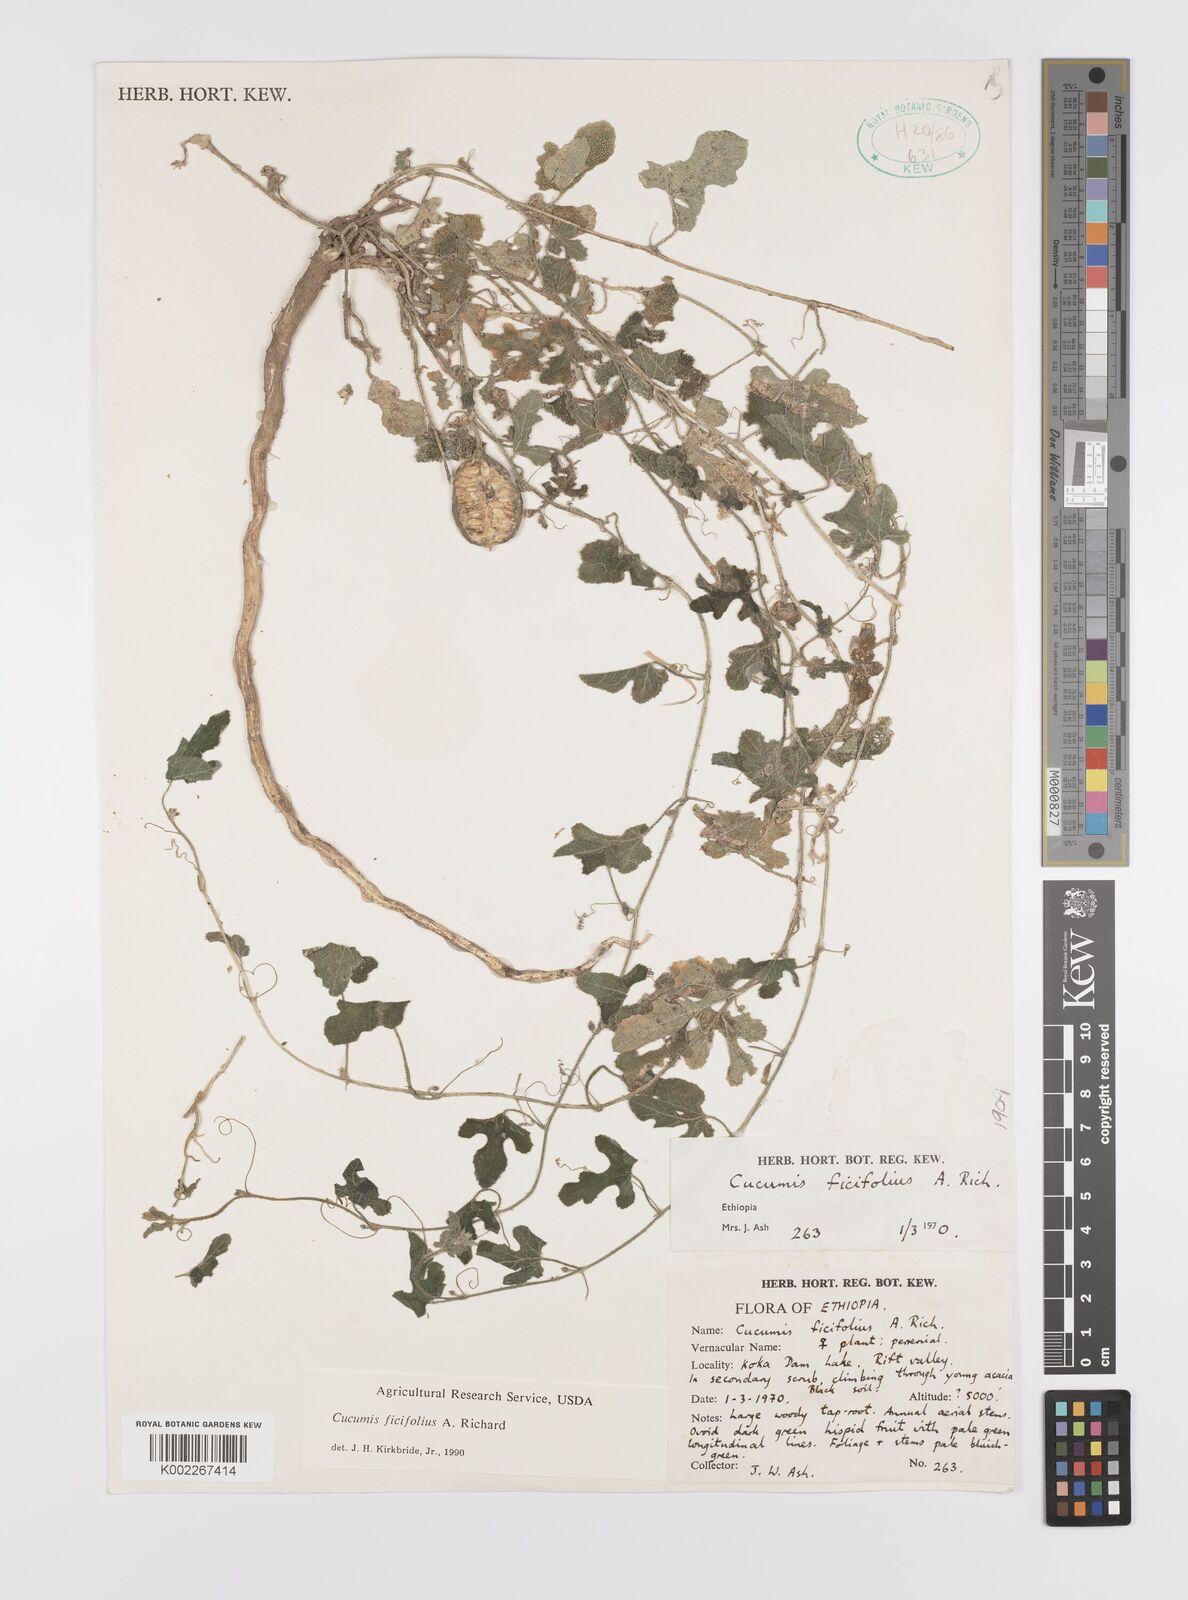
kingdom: Plantae
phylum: Tracheophyta
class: Magnoliopsida
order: Cucurbitales
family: Cucurbitaceae
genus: Cucumis
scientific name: Cucumis ficifolius
